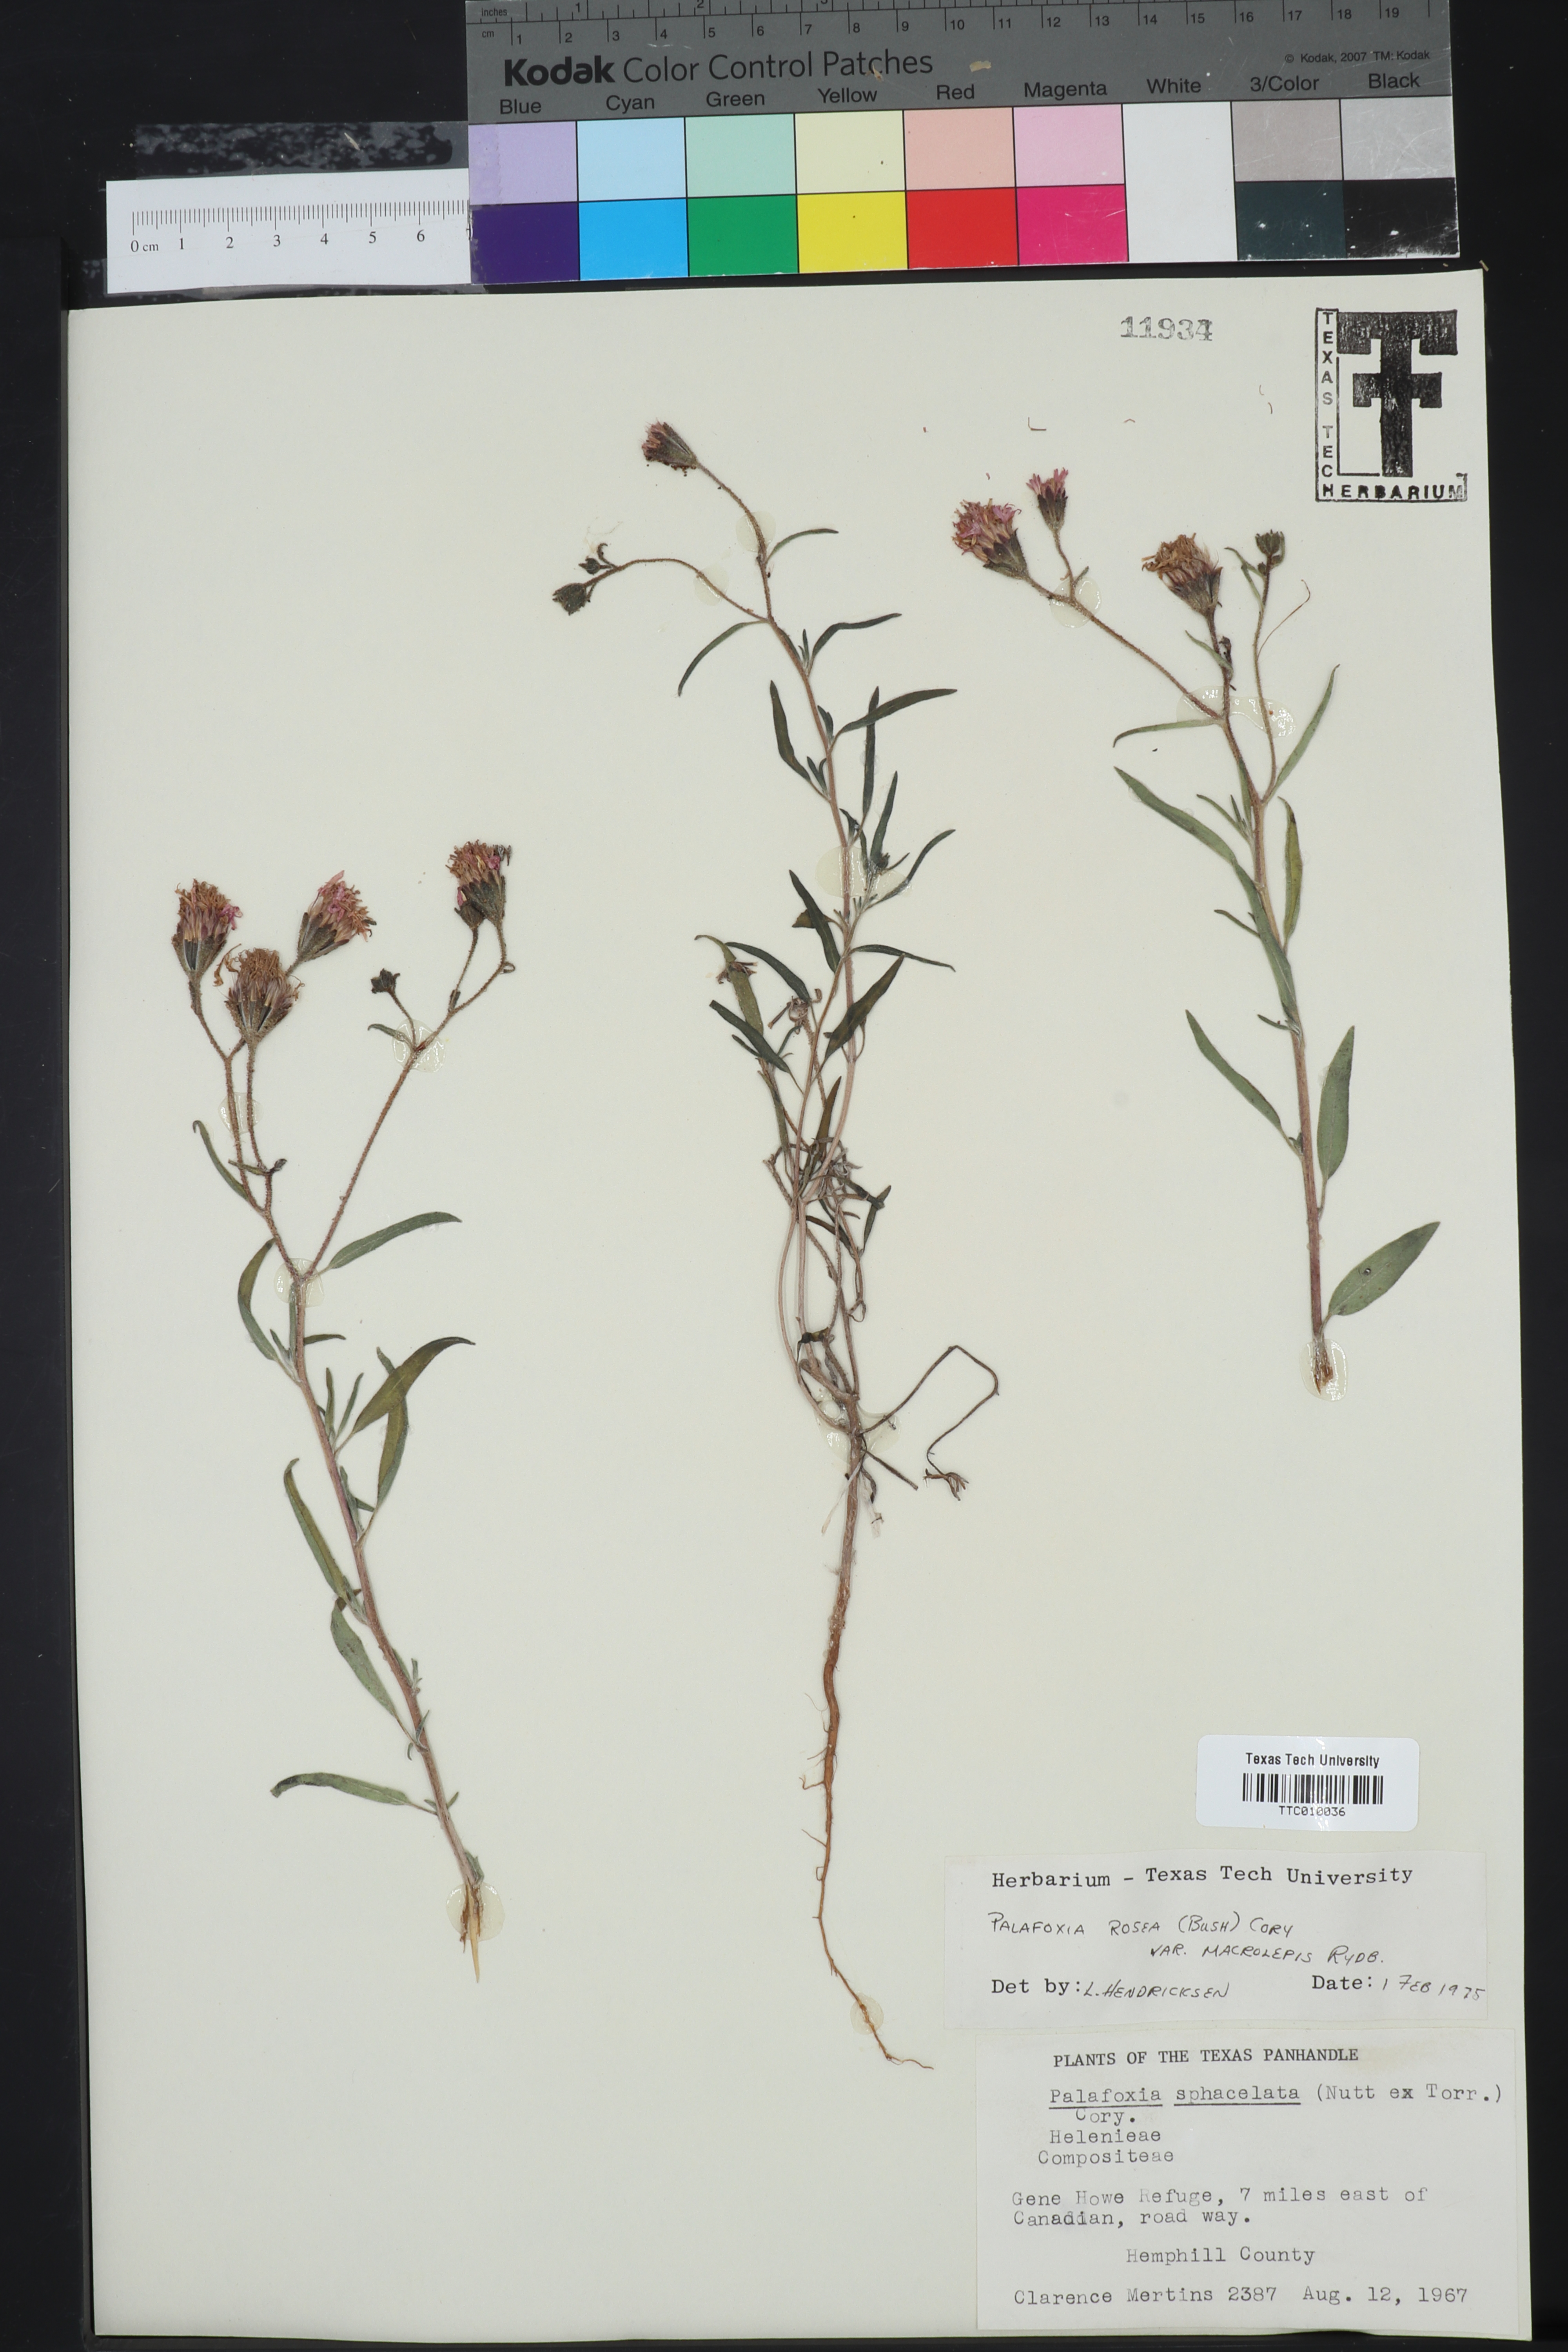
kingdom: Plantae
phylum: Tracheophyta
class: Magnoliopsida
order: Asterales
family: Asteraceae
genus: Palafoxia
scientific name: Palafoxia rosea
